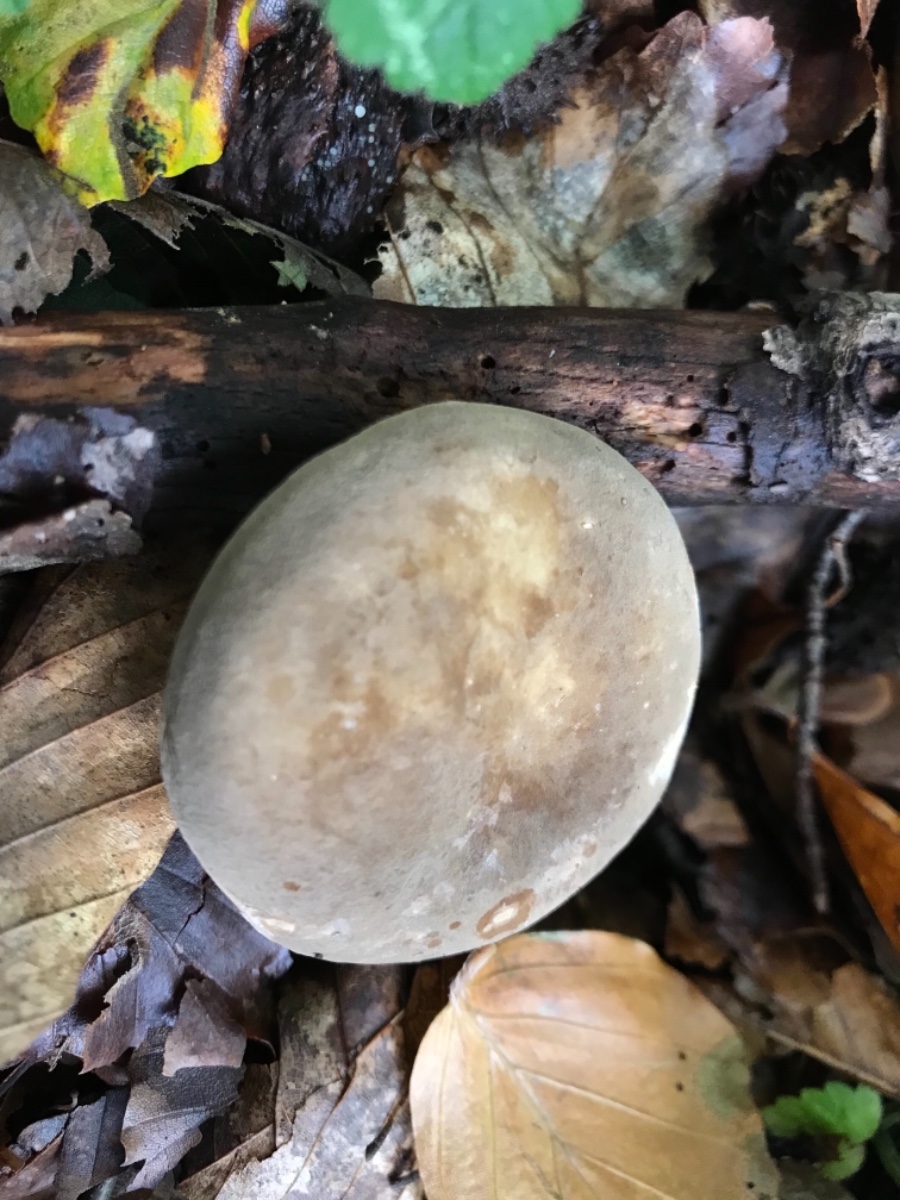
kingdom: Fungi
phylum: Basidiomycota
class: Agaricomycetes
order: Russulales
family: Russulaceae
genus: Lactarius
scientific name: Lactarius pterosporus
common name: vingesporet mælkehat
